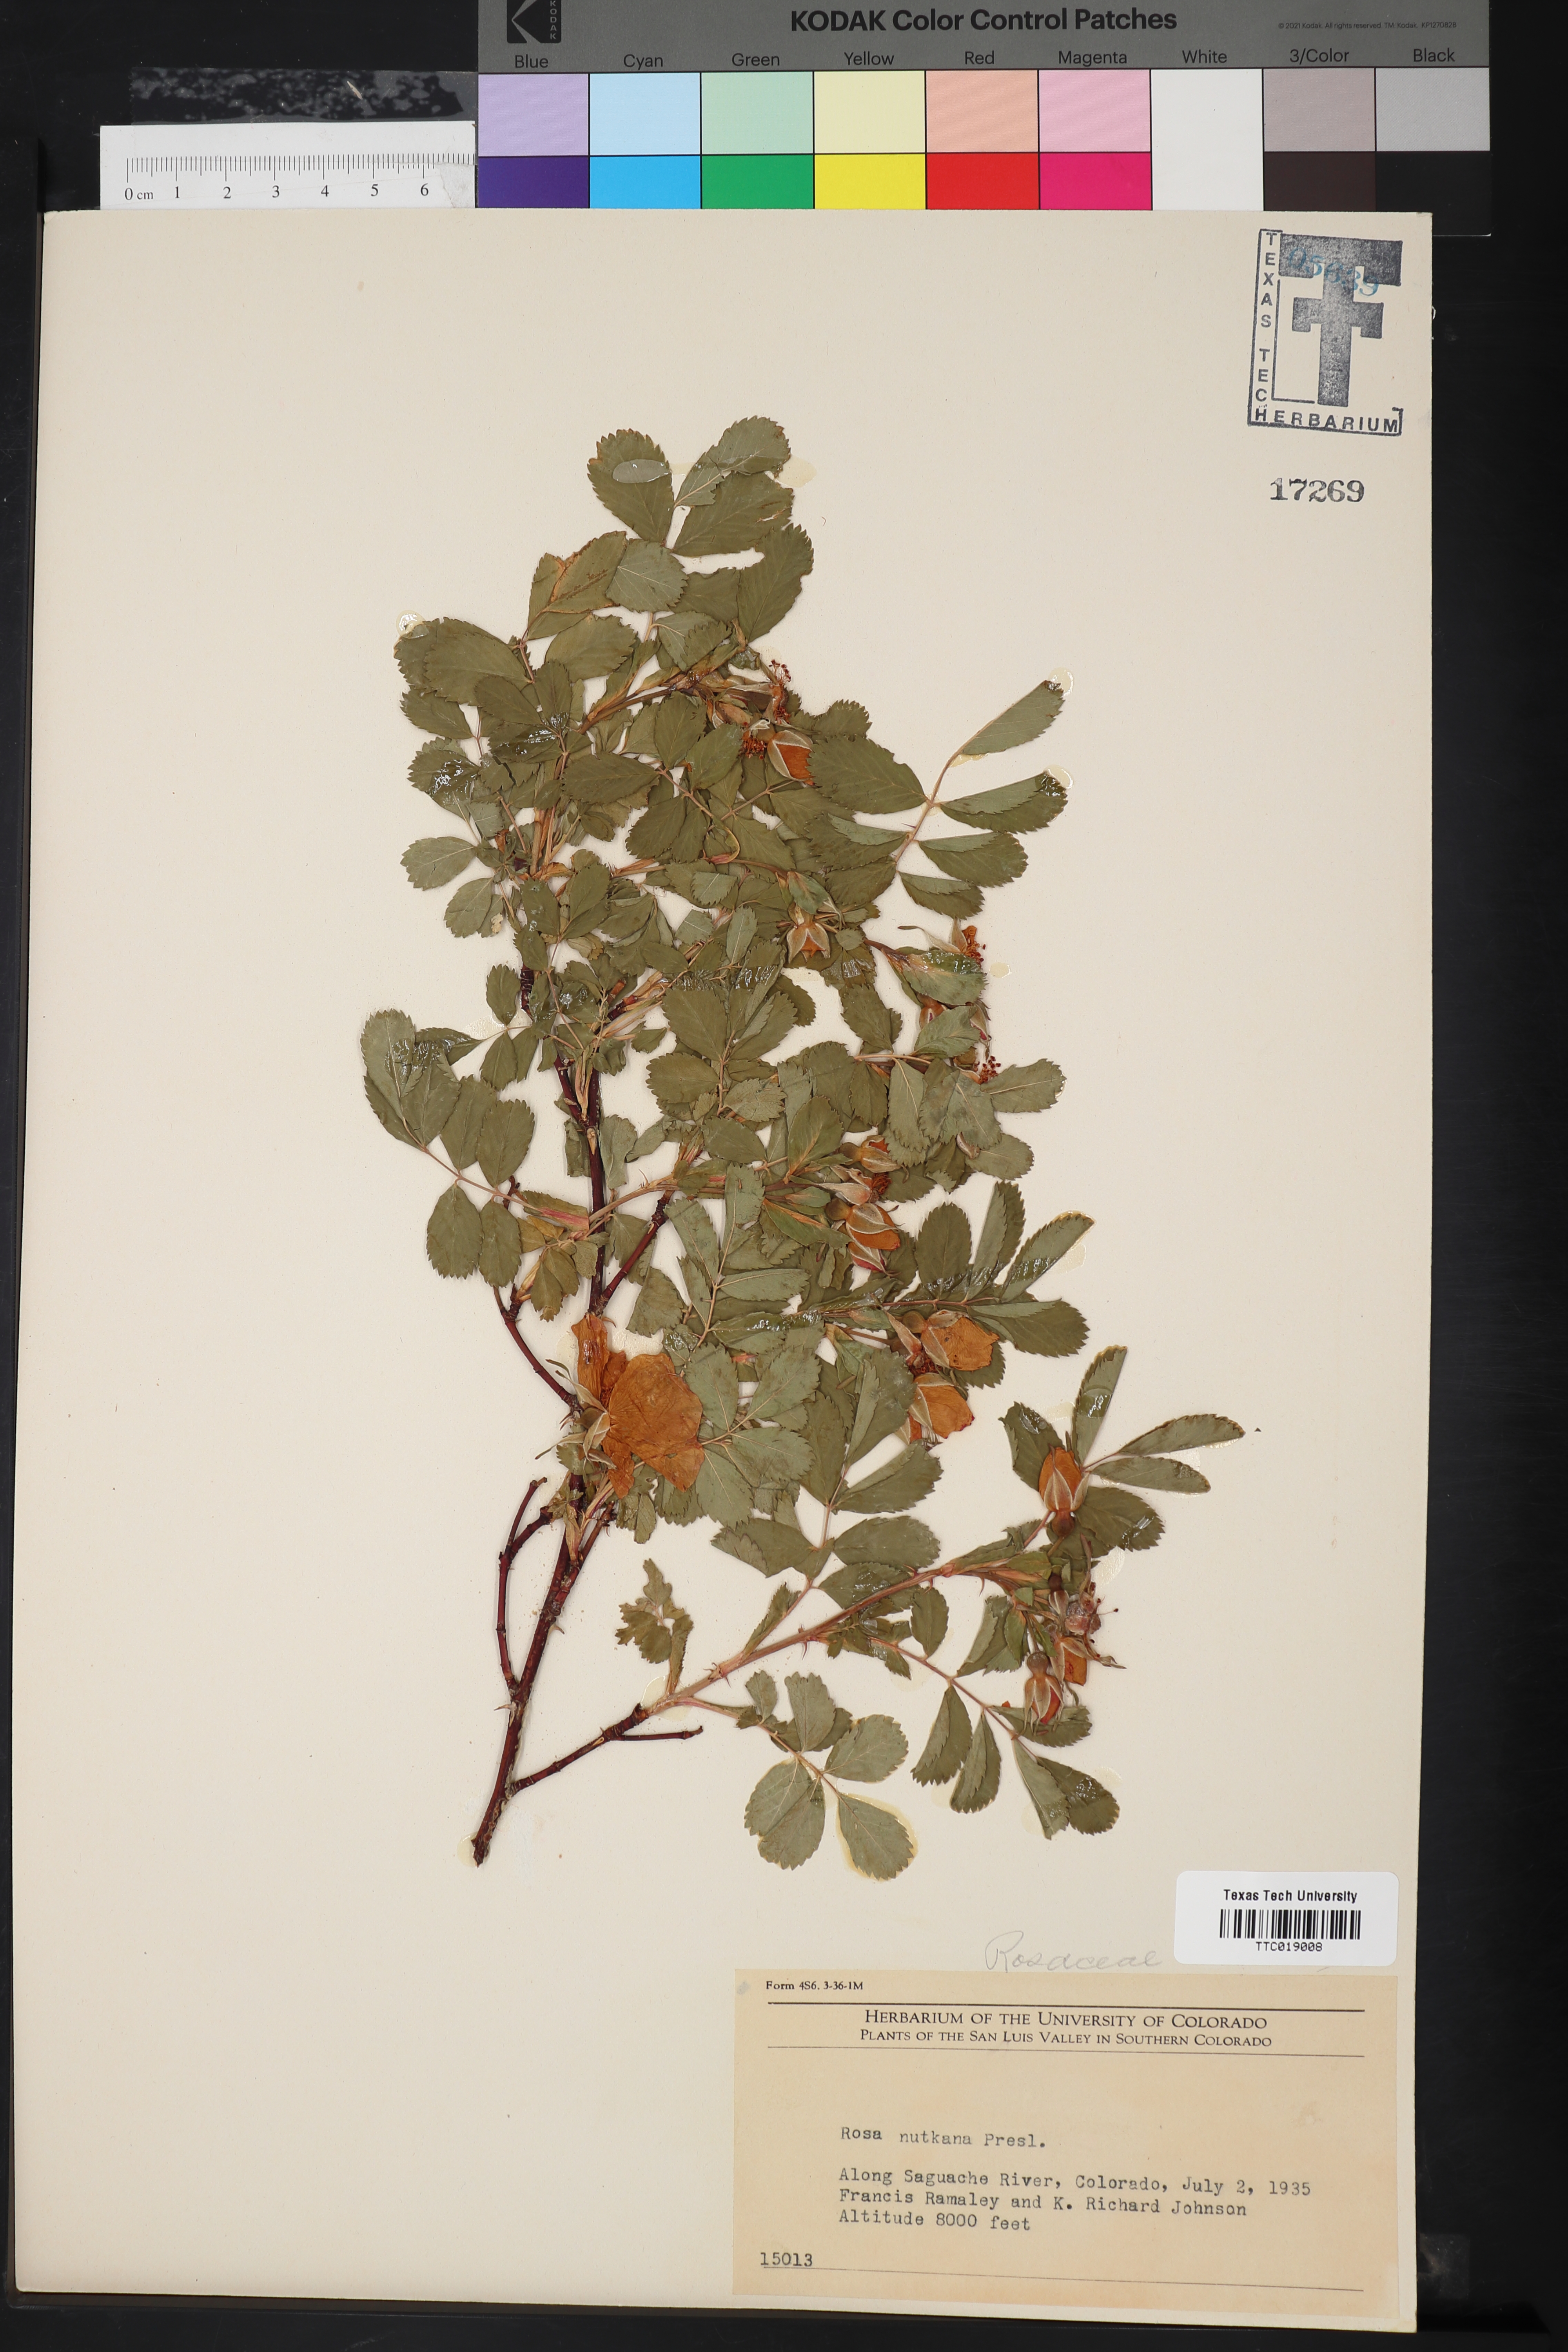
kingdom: Plantae
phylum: Tracheophyta
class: Magnoliopsida
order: Rosales
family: Rosaceae
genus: Rosa
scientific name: Rosa nutkana
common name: Nootka rose
